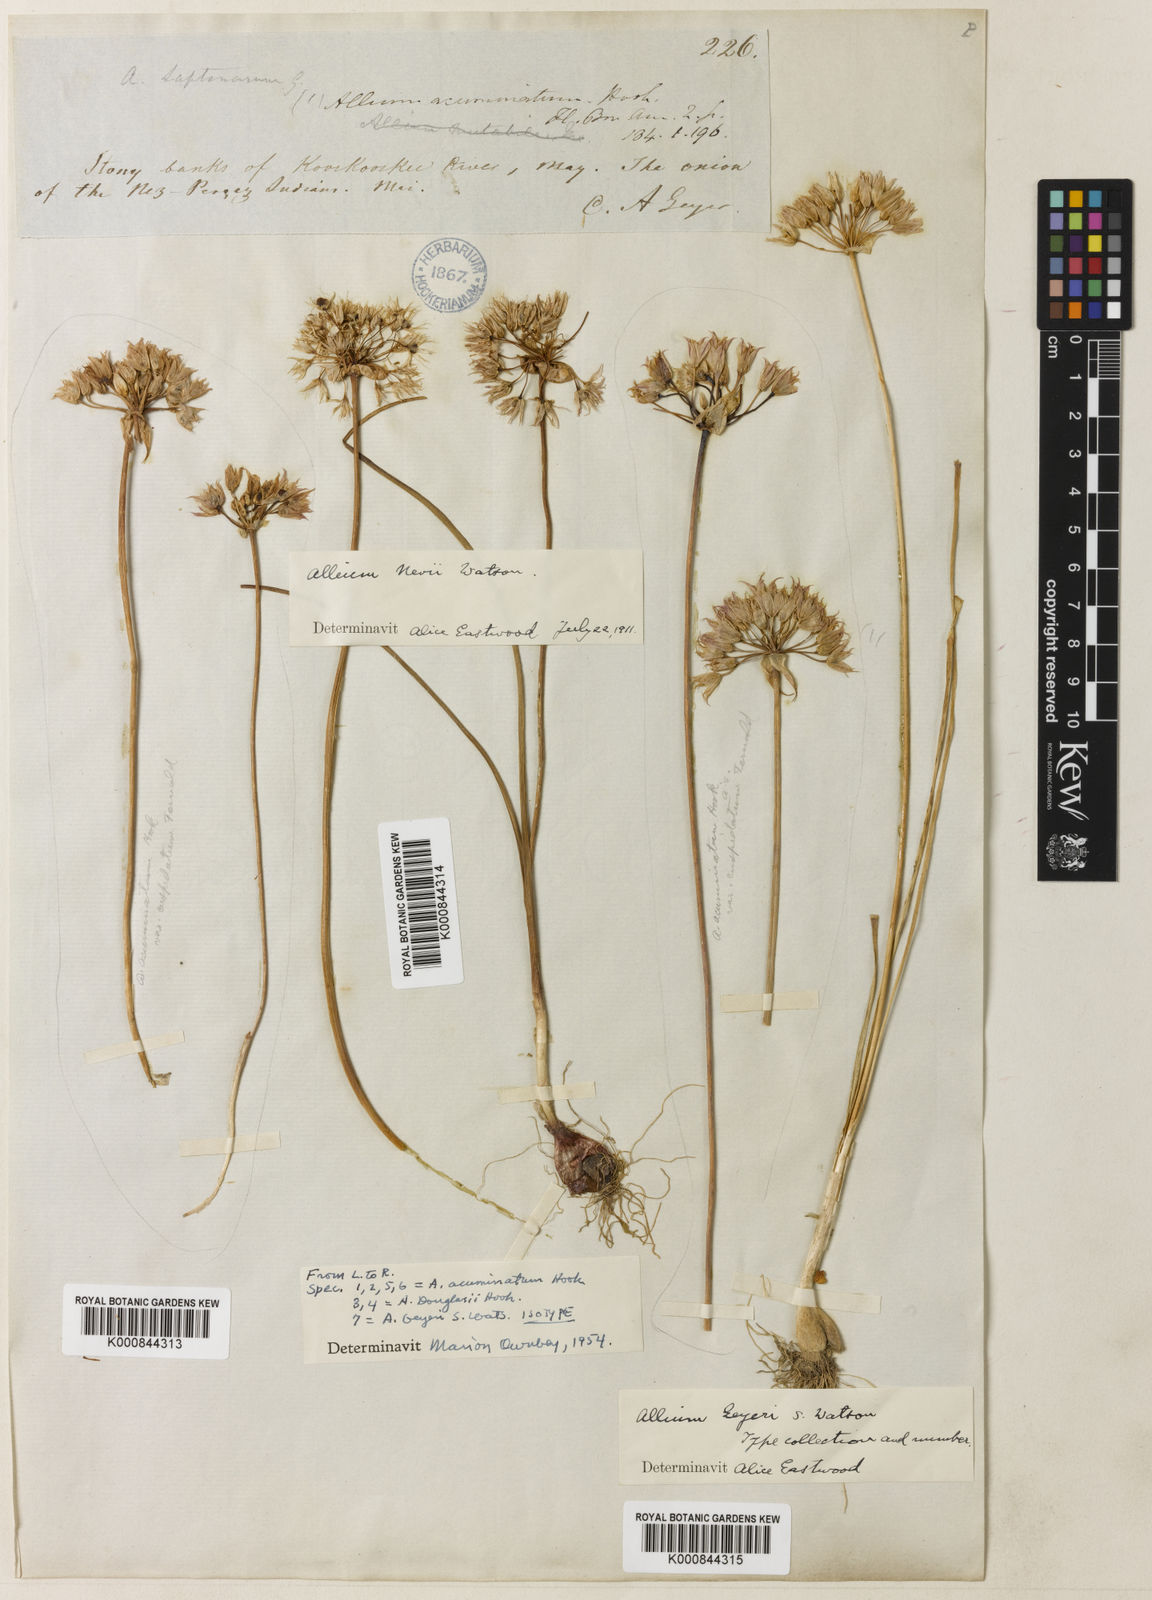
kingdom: Plantae
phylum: Tracheophyta
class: Liliopsida
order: Asparagales
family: Amaryllidaceae
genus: Allium
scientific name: Allium geyeri
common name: Geyer's onion
